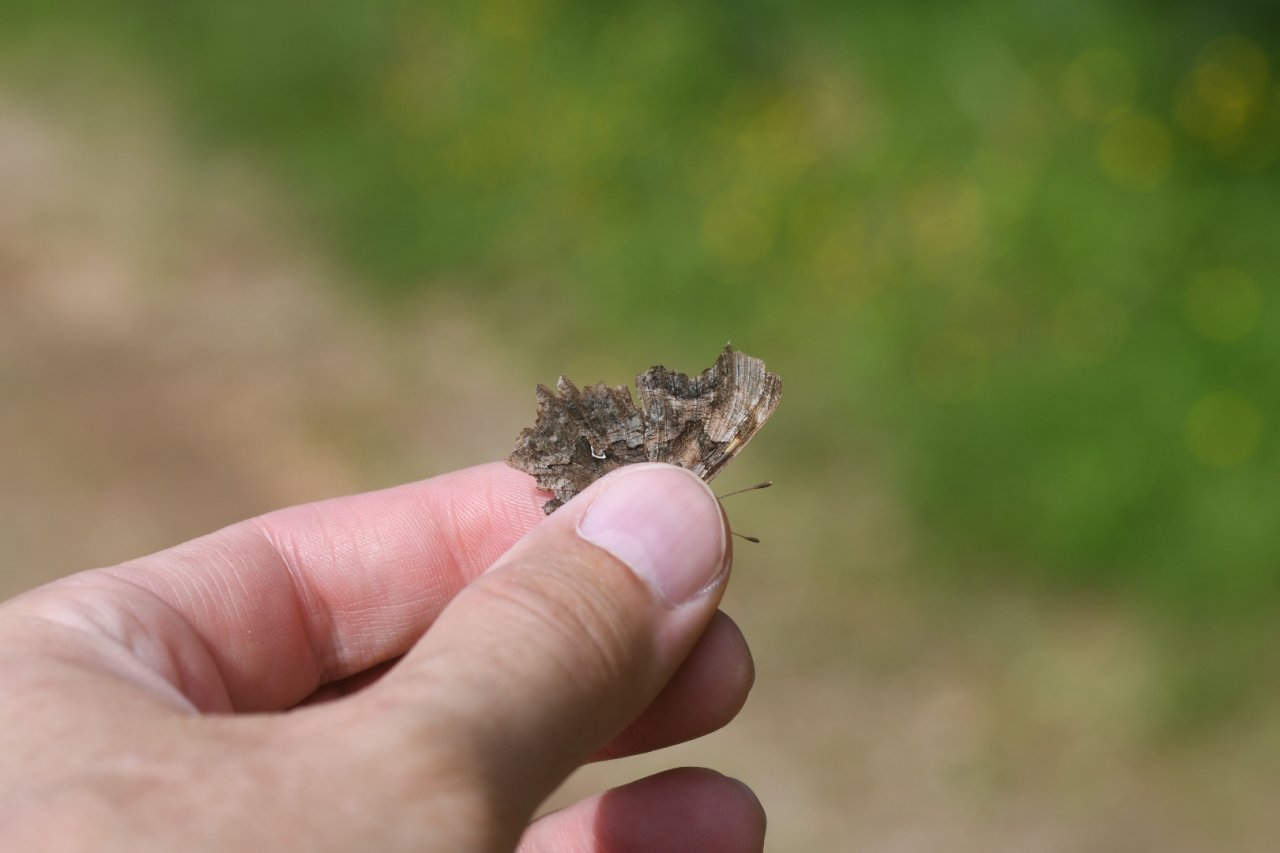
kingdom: Animalia
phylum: Arthropoda
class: Insecta
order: Lepidoptera
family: Nymphalidae
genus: Polygonia
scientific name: Polygonia faunus
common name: Green Comma
